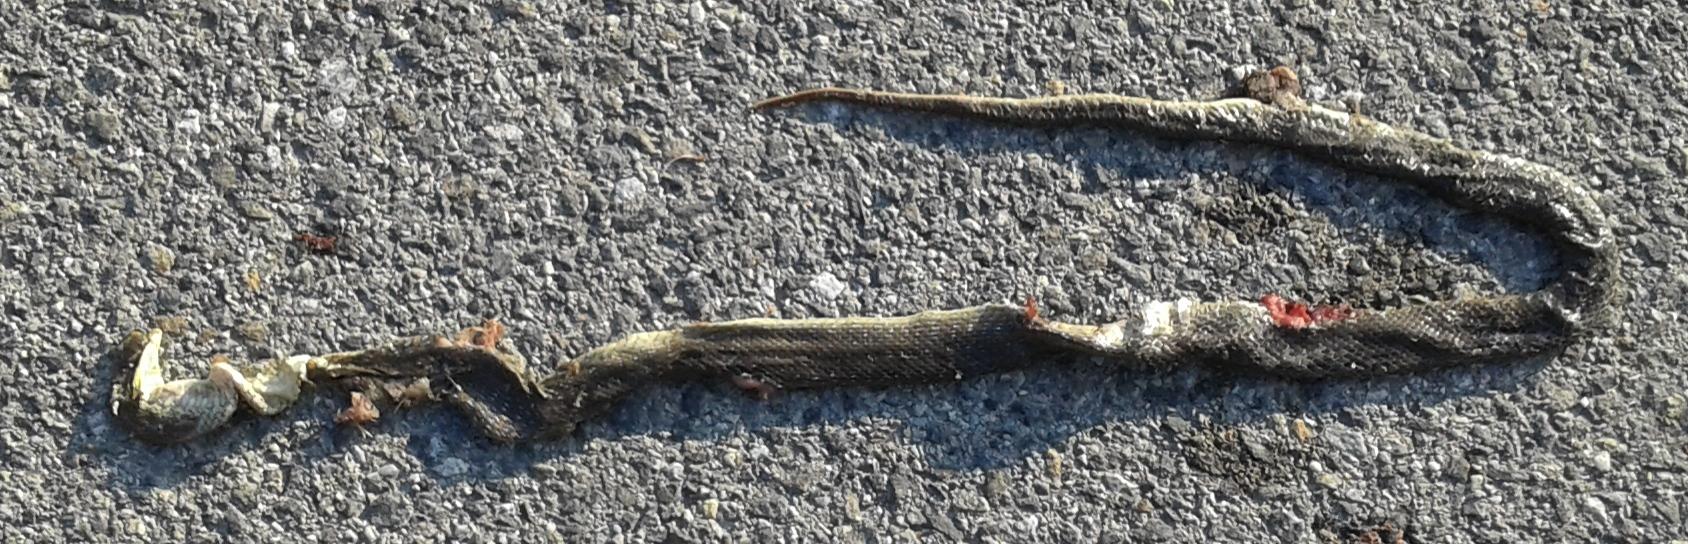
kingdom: Animalia
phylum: Chordata
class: Squamata
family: Colubridae
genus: Zamenis
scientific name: Zamenis longissimus
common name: Aesculapean snake
